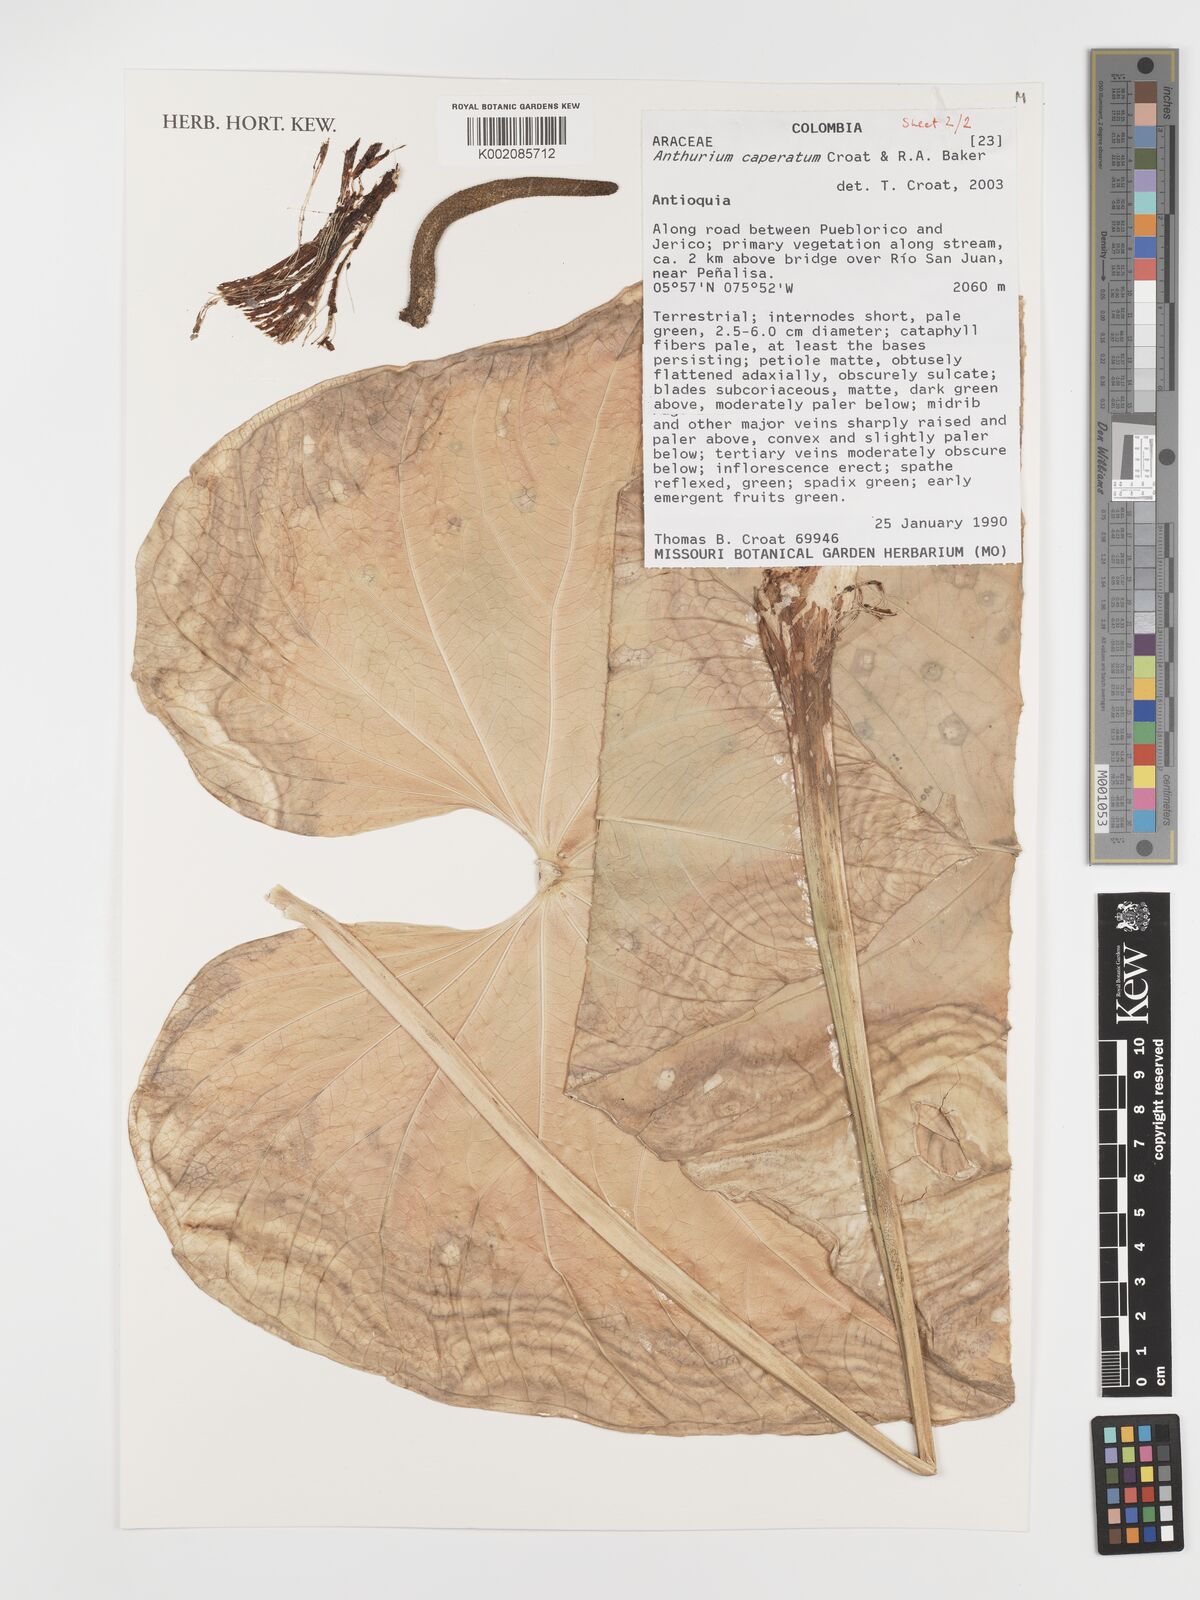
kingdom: Plantae
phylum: Tracheophyta
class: Liliopsida
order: Alismatales
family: Araceae
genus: Anthurium
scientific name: Anthurium caperatum
